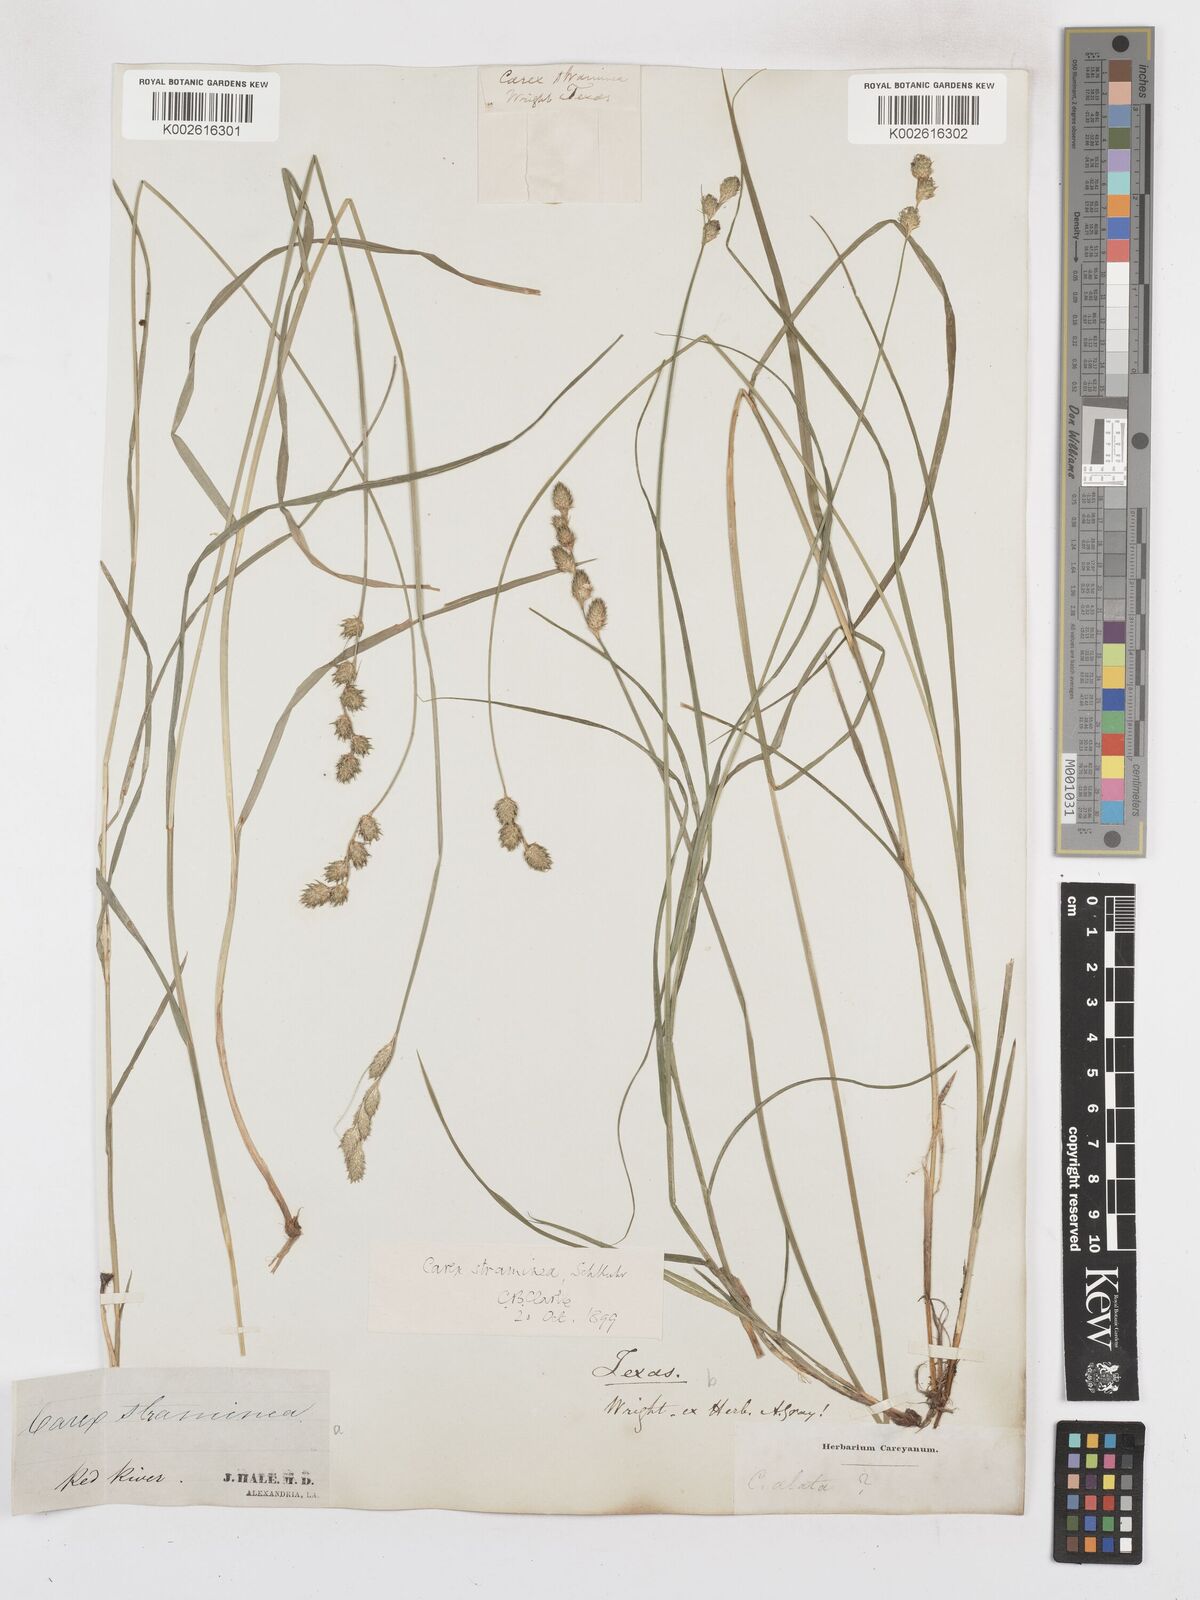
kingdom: Plantae
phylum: Tracheophyta
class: Liliopsida
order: Poales
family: Cyperaceae
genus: Carex
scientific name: Carex albolutescens
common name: Freenish white sedge
